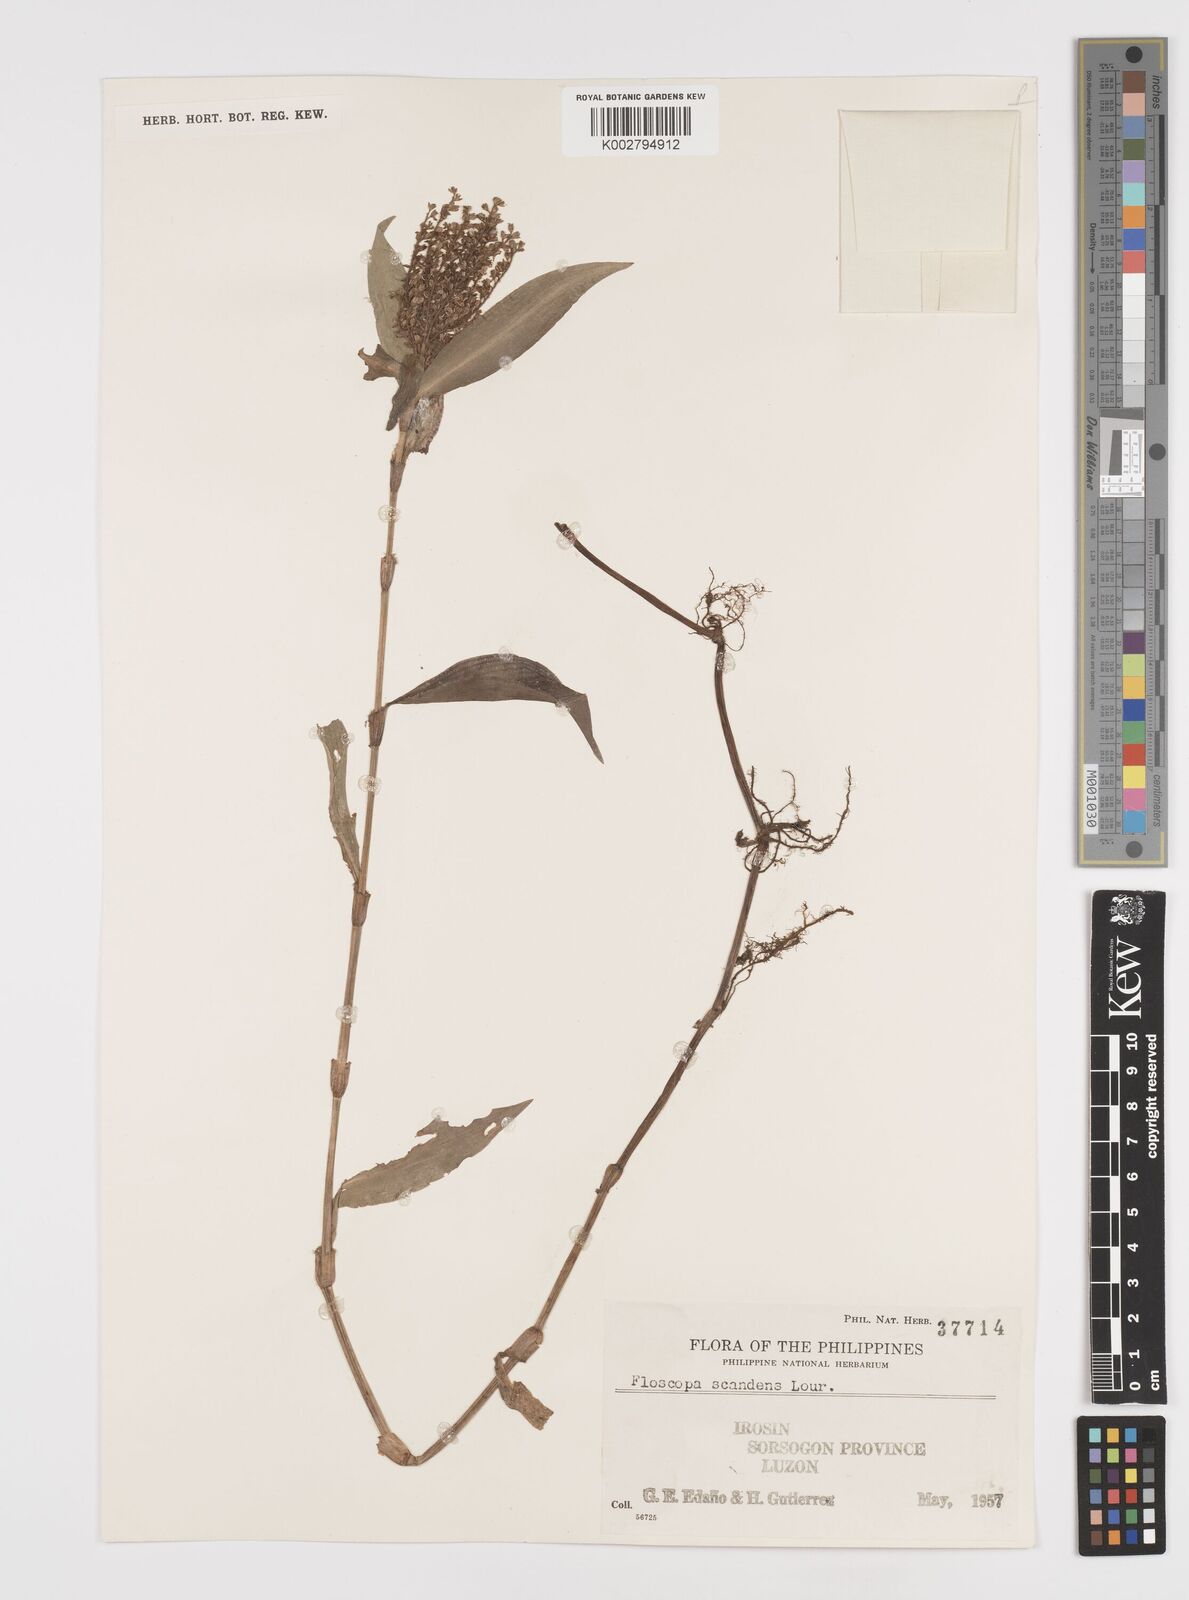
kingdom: Plantae
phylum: Tracheophyta
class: Liliopsida
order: Commelinales
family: Commelinaceae
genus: Floscopa
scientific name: Floscopa scandens
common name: Climbing flower cup
